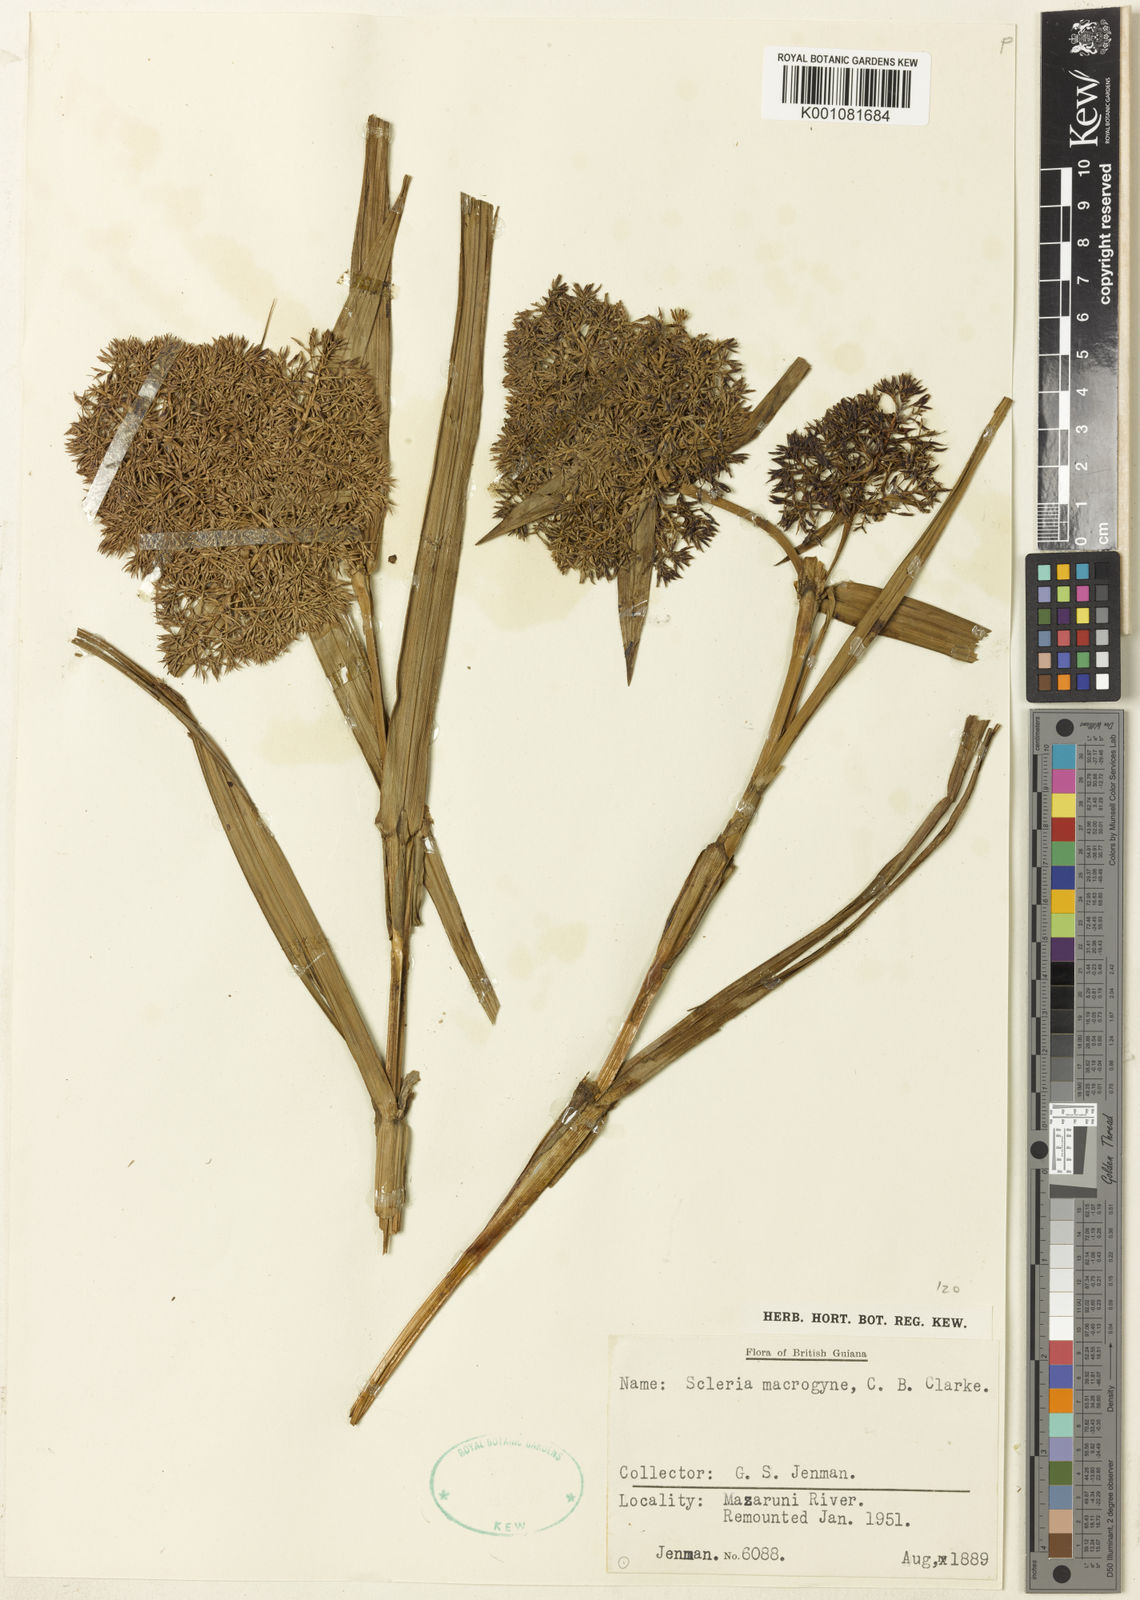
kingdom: Plantae
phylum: Tracheophyta
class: Liliopsida
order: Poales
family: Cyperaceae
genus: Scleria
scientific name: Scleria macrogyne
